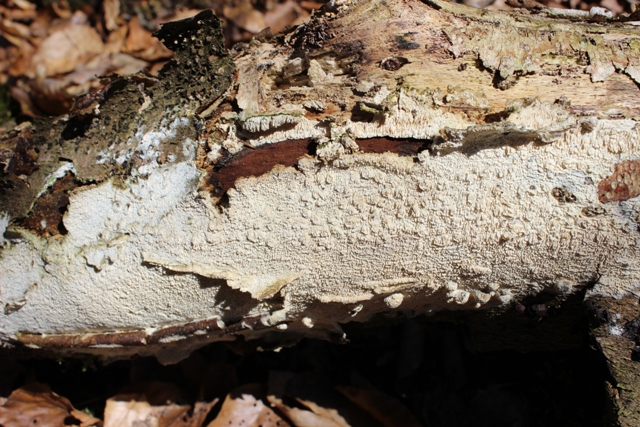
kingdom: Fungi
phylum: Basidiomycota
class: Agaricomycetes
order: Hymenochaetales
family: Schizoporaceae
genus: Schizopora
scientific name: Schizopora paradoxa
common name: hvid tandsvamp
